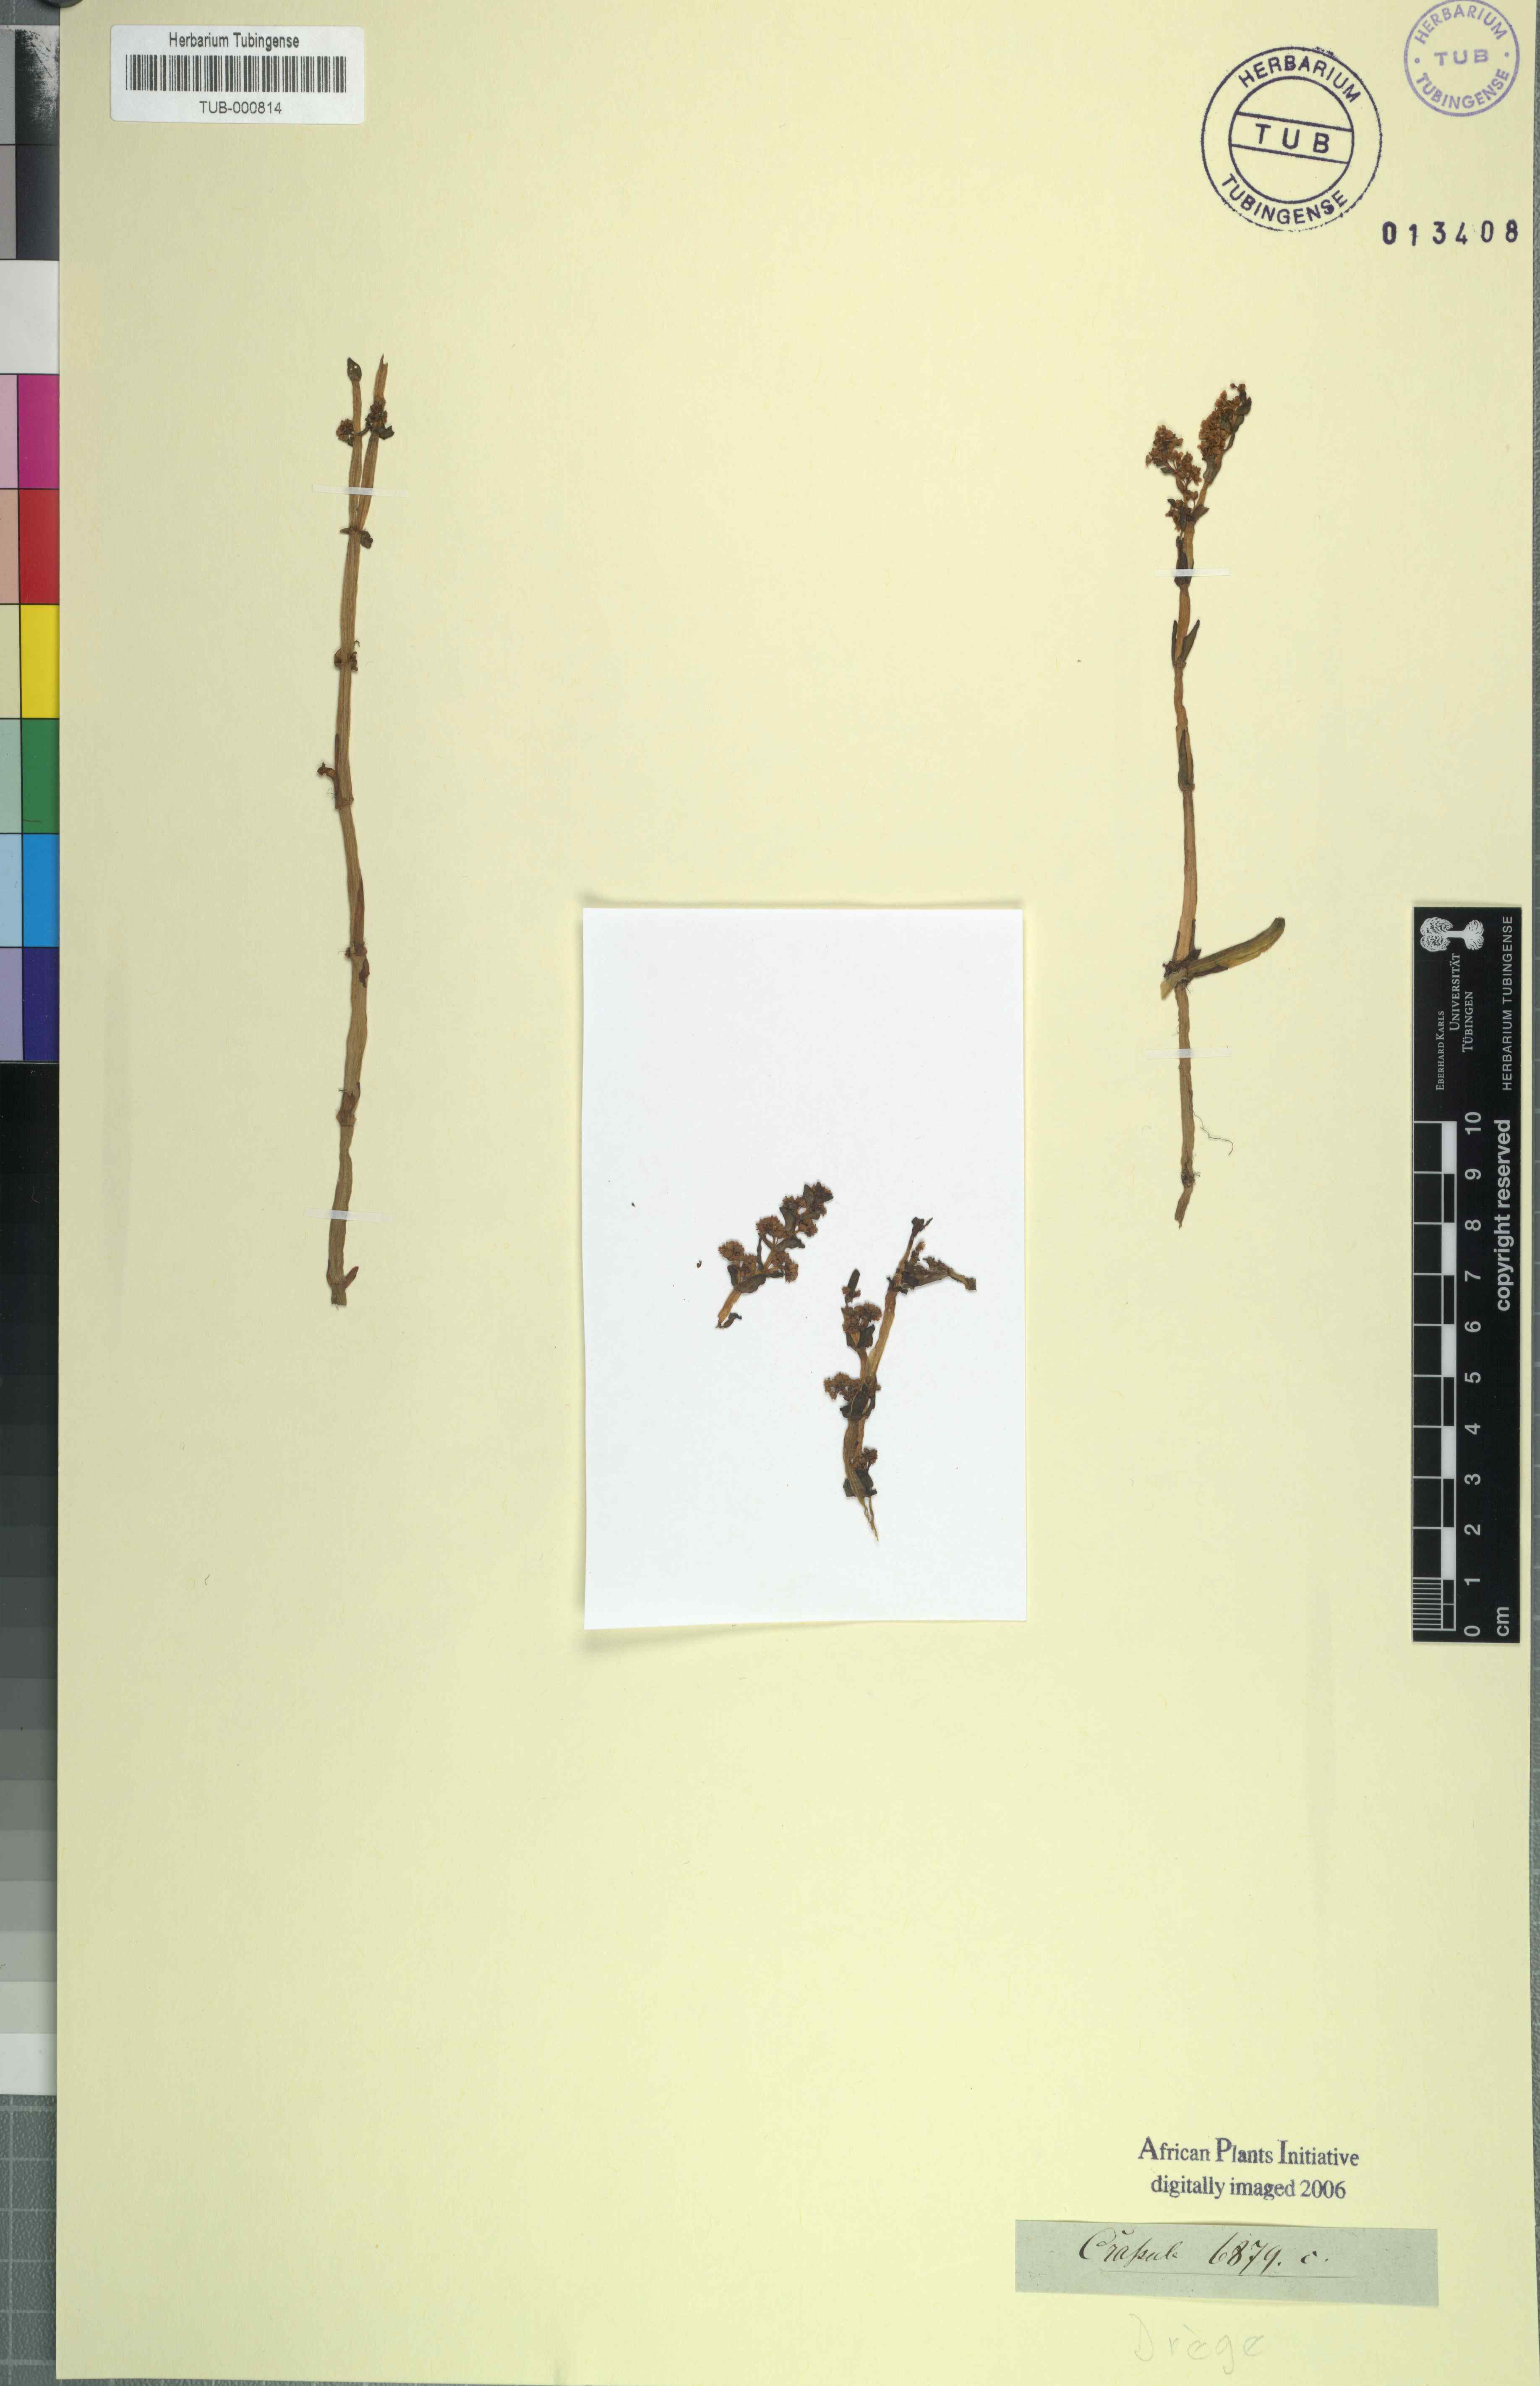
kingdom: Plantae
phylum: Tracheophyta
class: Magnoliopsida
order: Saxifragales
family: Crassulaceae
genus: Crassula
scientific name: Crassula
